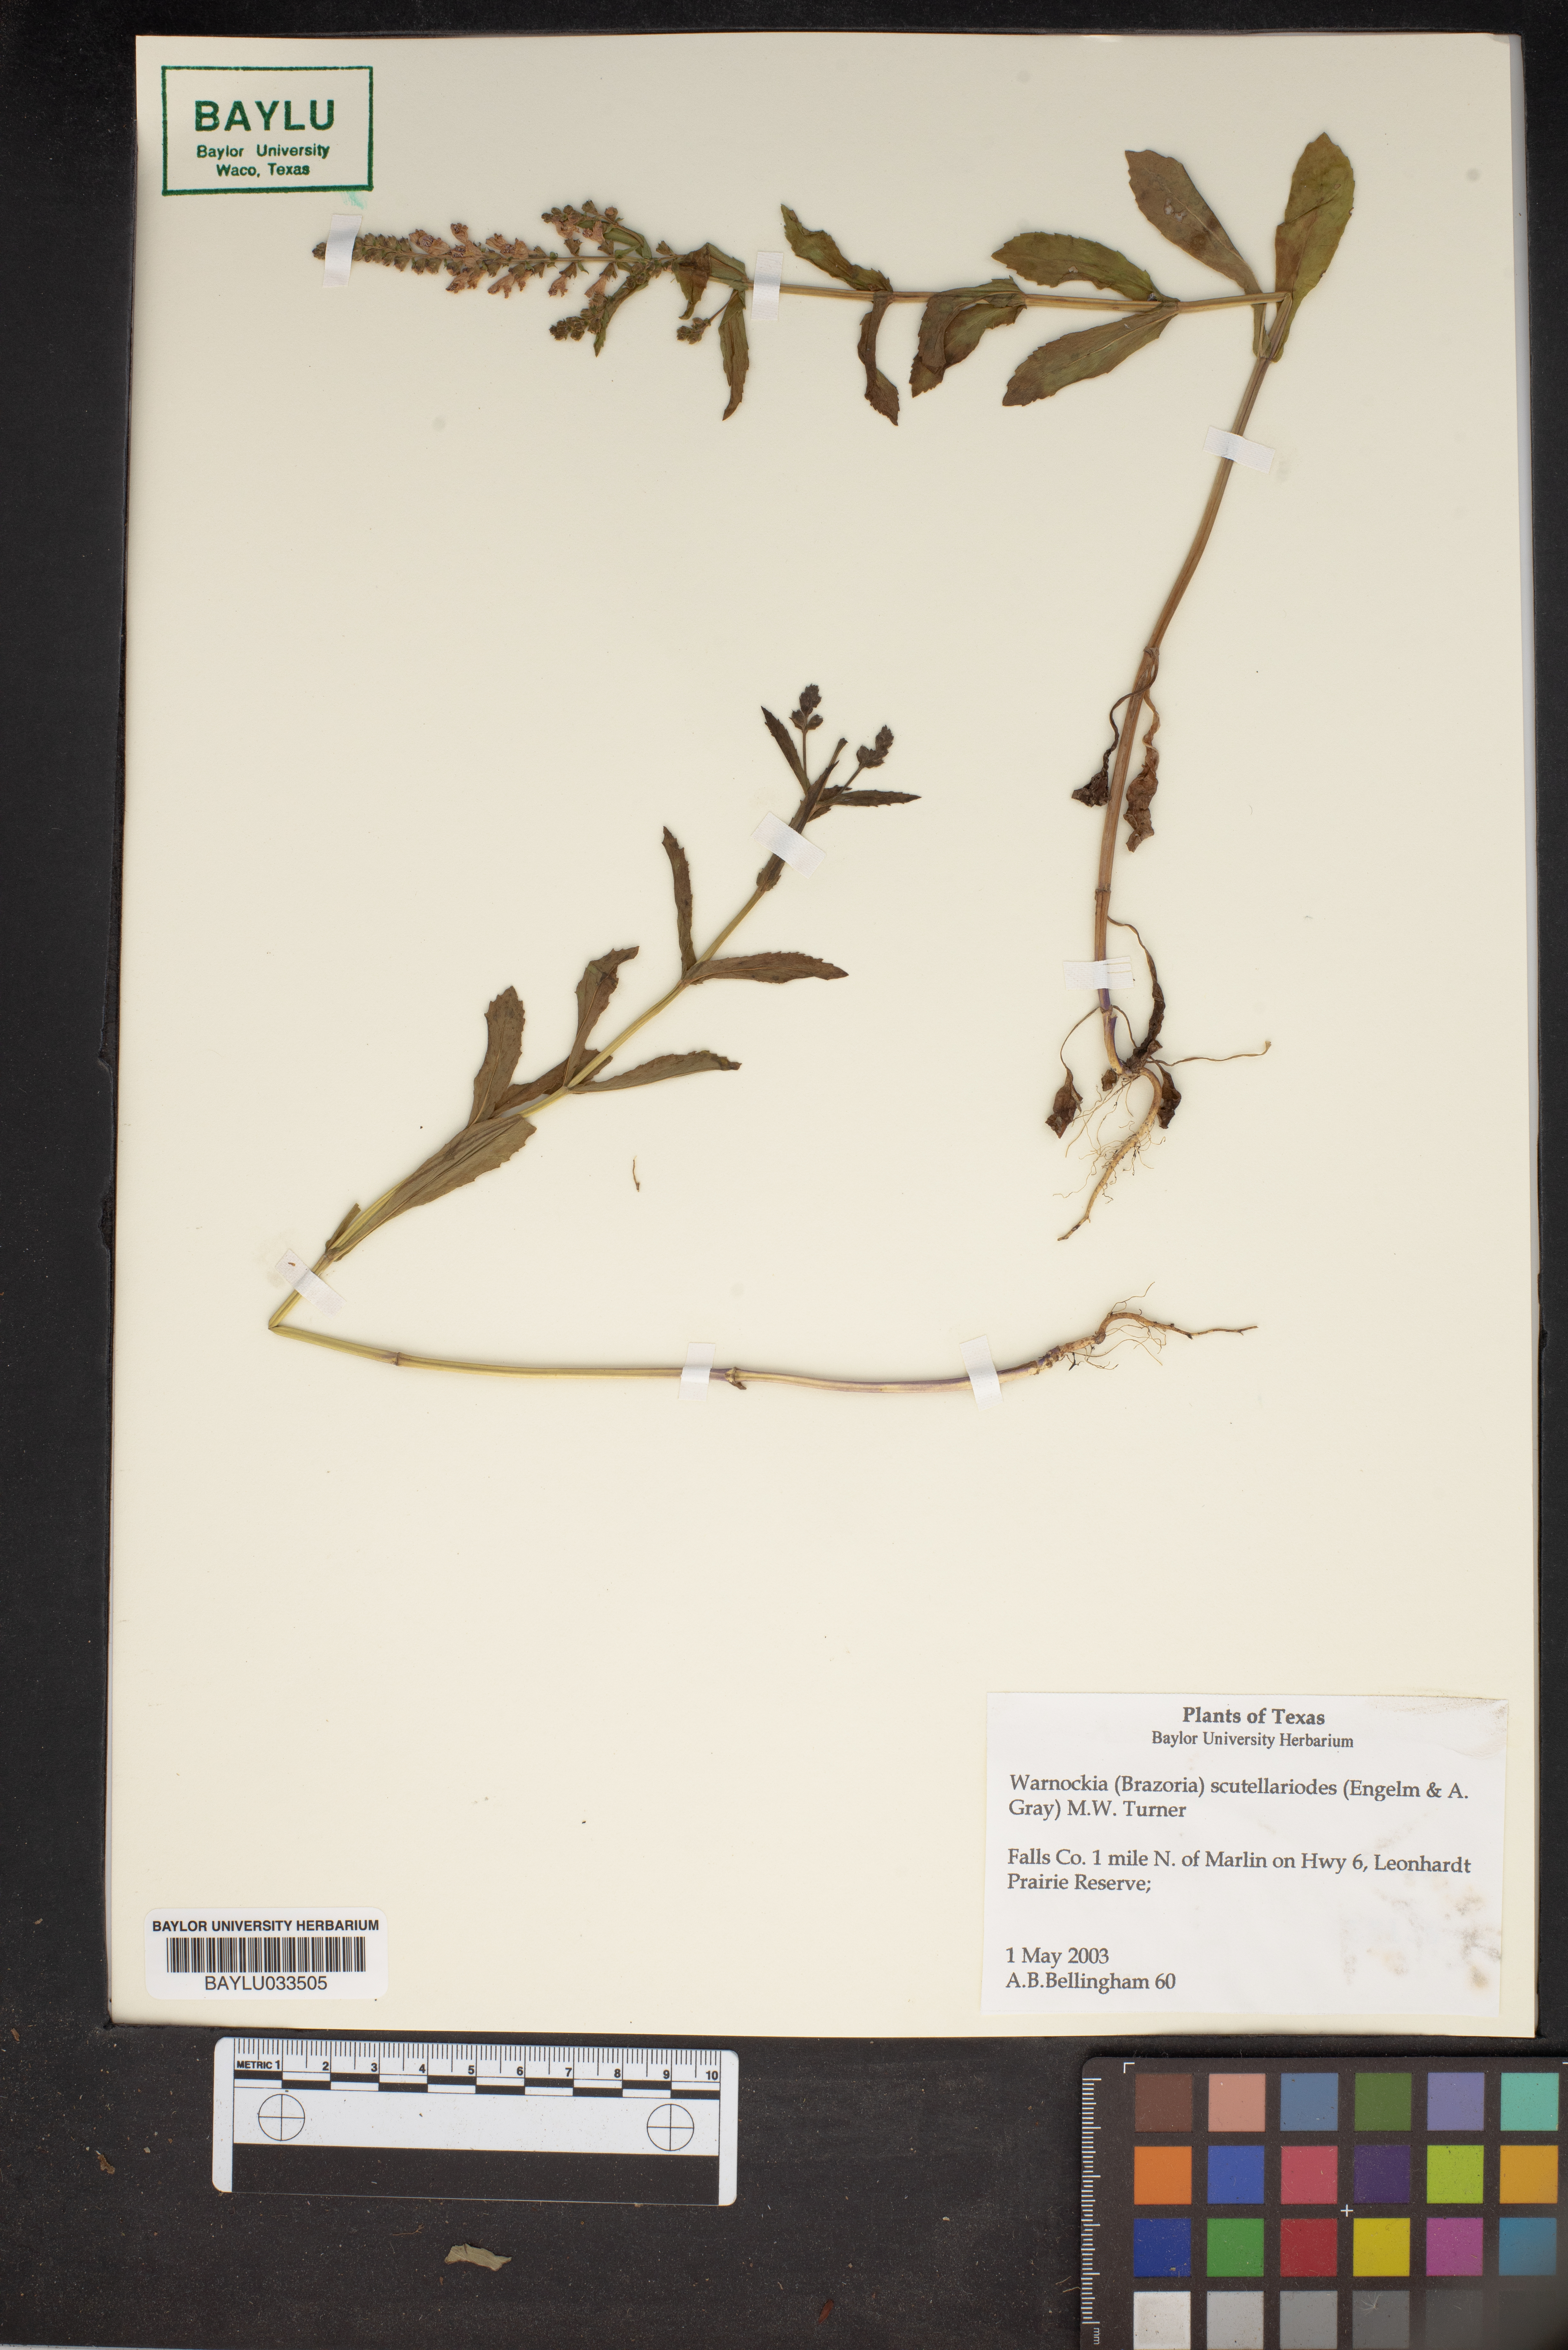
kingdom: Plantae
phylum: Tracheophyta
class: Magnoliopsida
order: Lamiales
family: Lamiaceae
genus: Warnockia
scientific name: Warnockia scutellarioides
